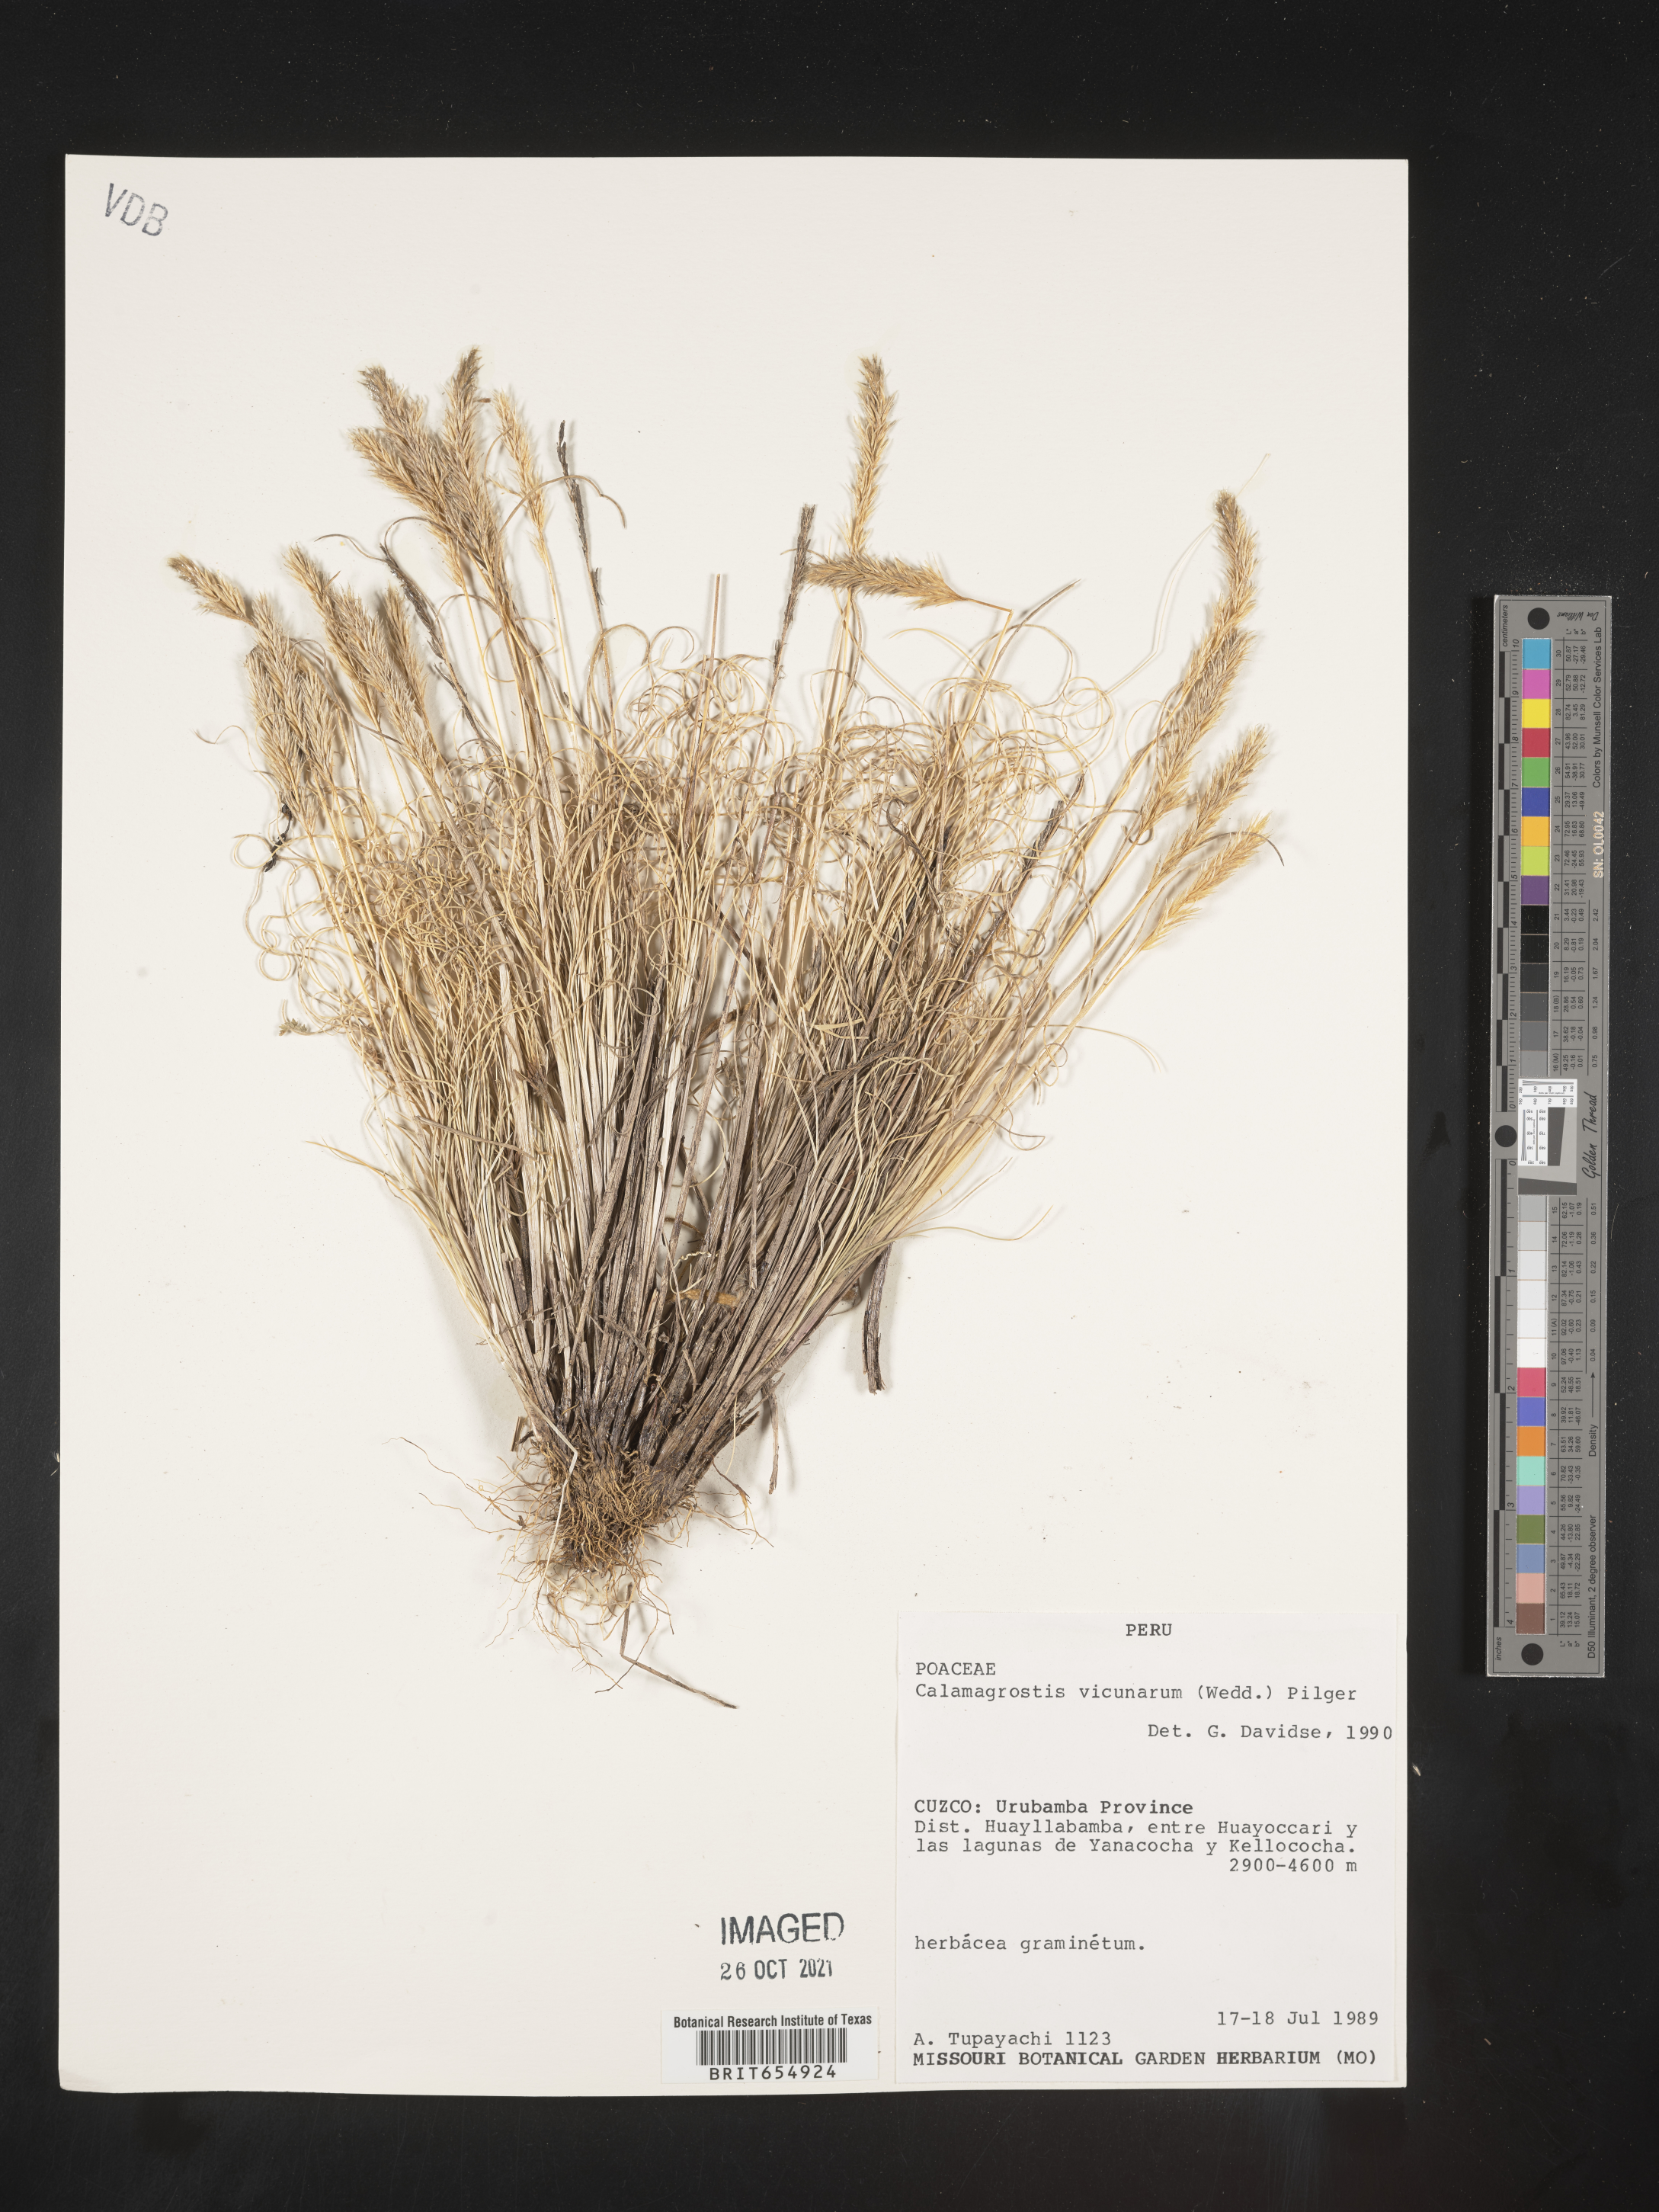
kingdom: Plantae
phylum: Tracheophyta
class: Liliopsida
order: Poales
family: Poaceae
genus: Calamagrostis
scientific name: Calamagrostis
